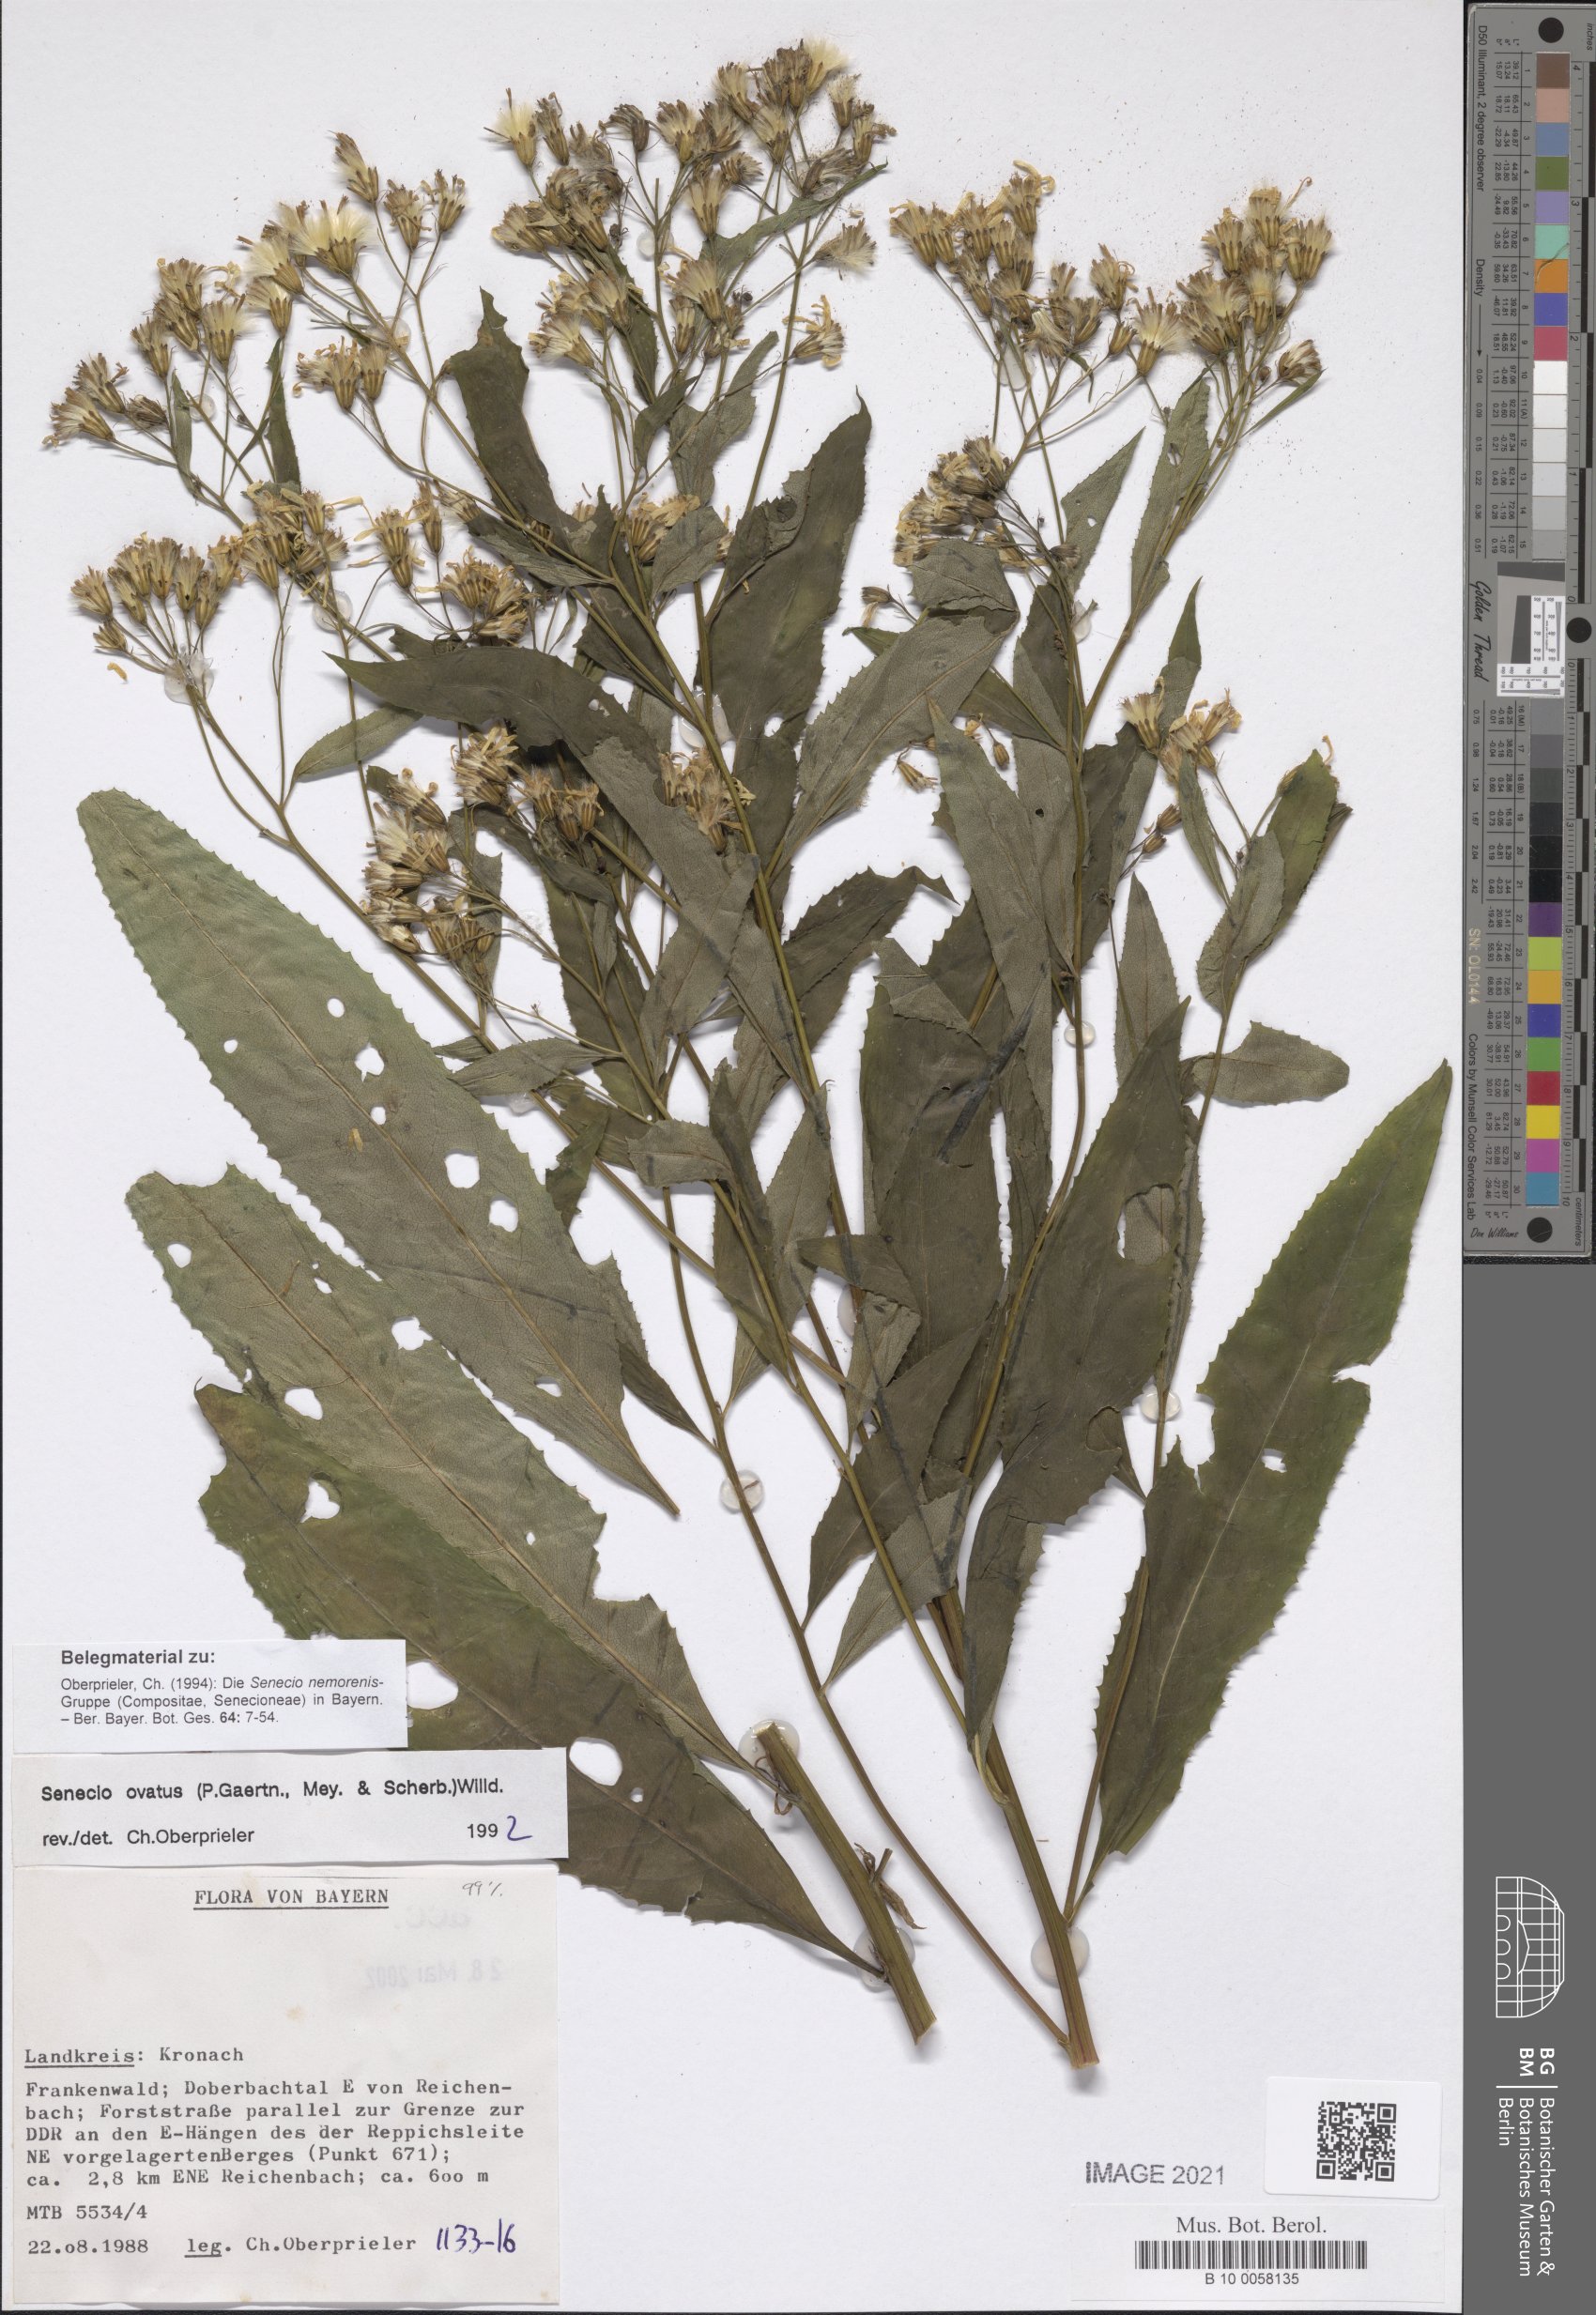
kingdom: Plantae
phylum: Tracheophyta
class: Magnoliopsida
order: Asterales
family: Asteraceae
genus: Senecio
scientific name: Senecio ovatus
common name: Wood ragwort
